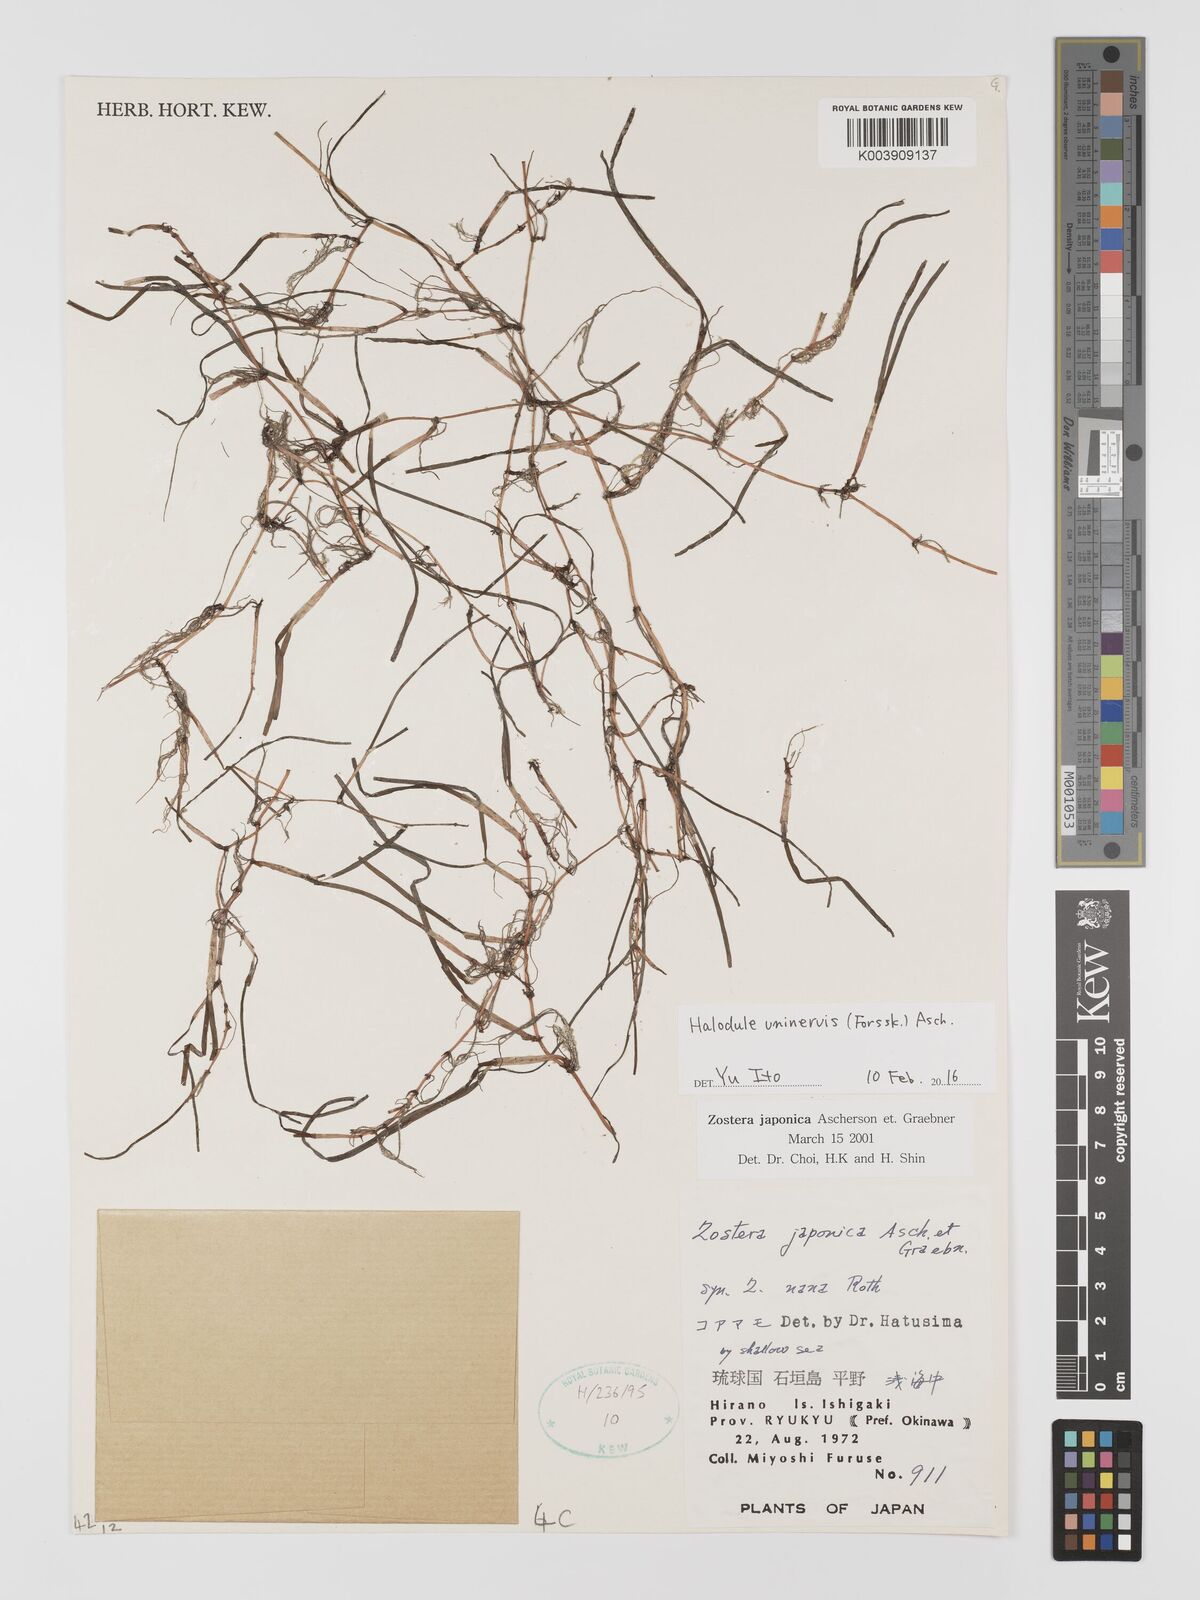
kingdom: Plantae
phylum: Tracheophyta
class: Liliopsida
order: Alismatales
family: Cymodoceaceae
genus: Halodule
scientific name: Halodule uninervis
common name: Narrowleaf seagrass
